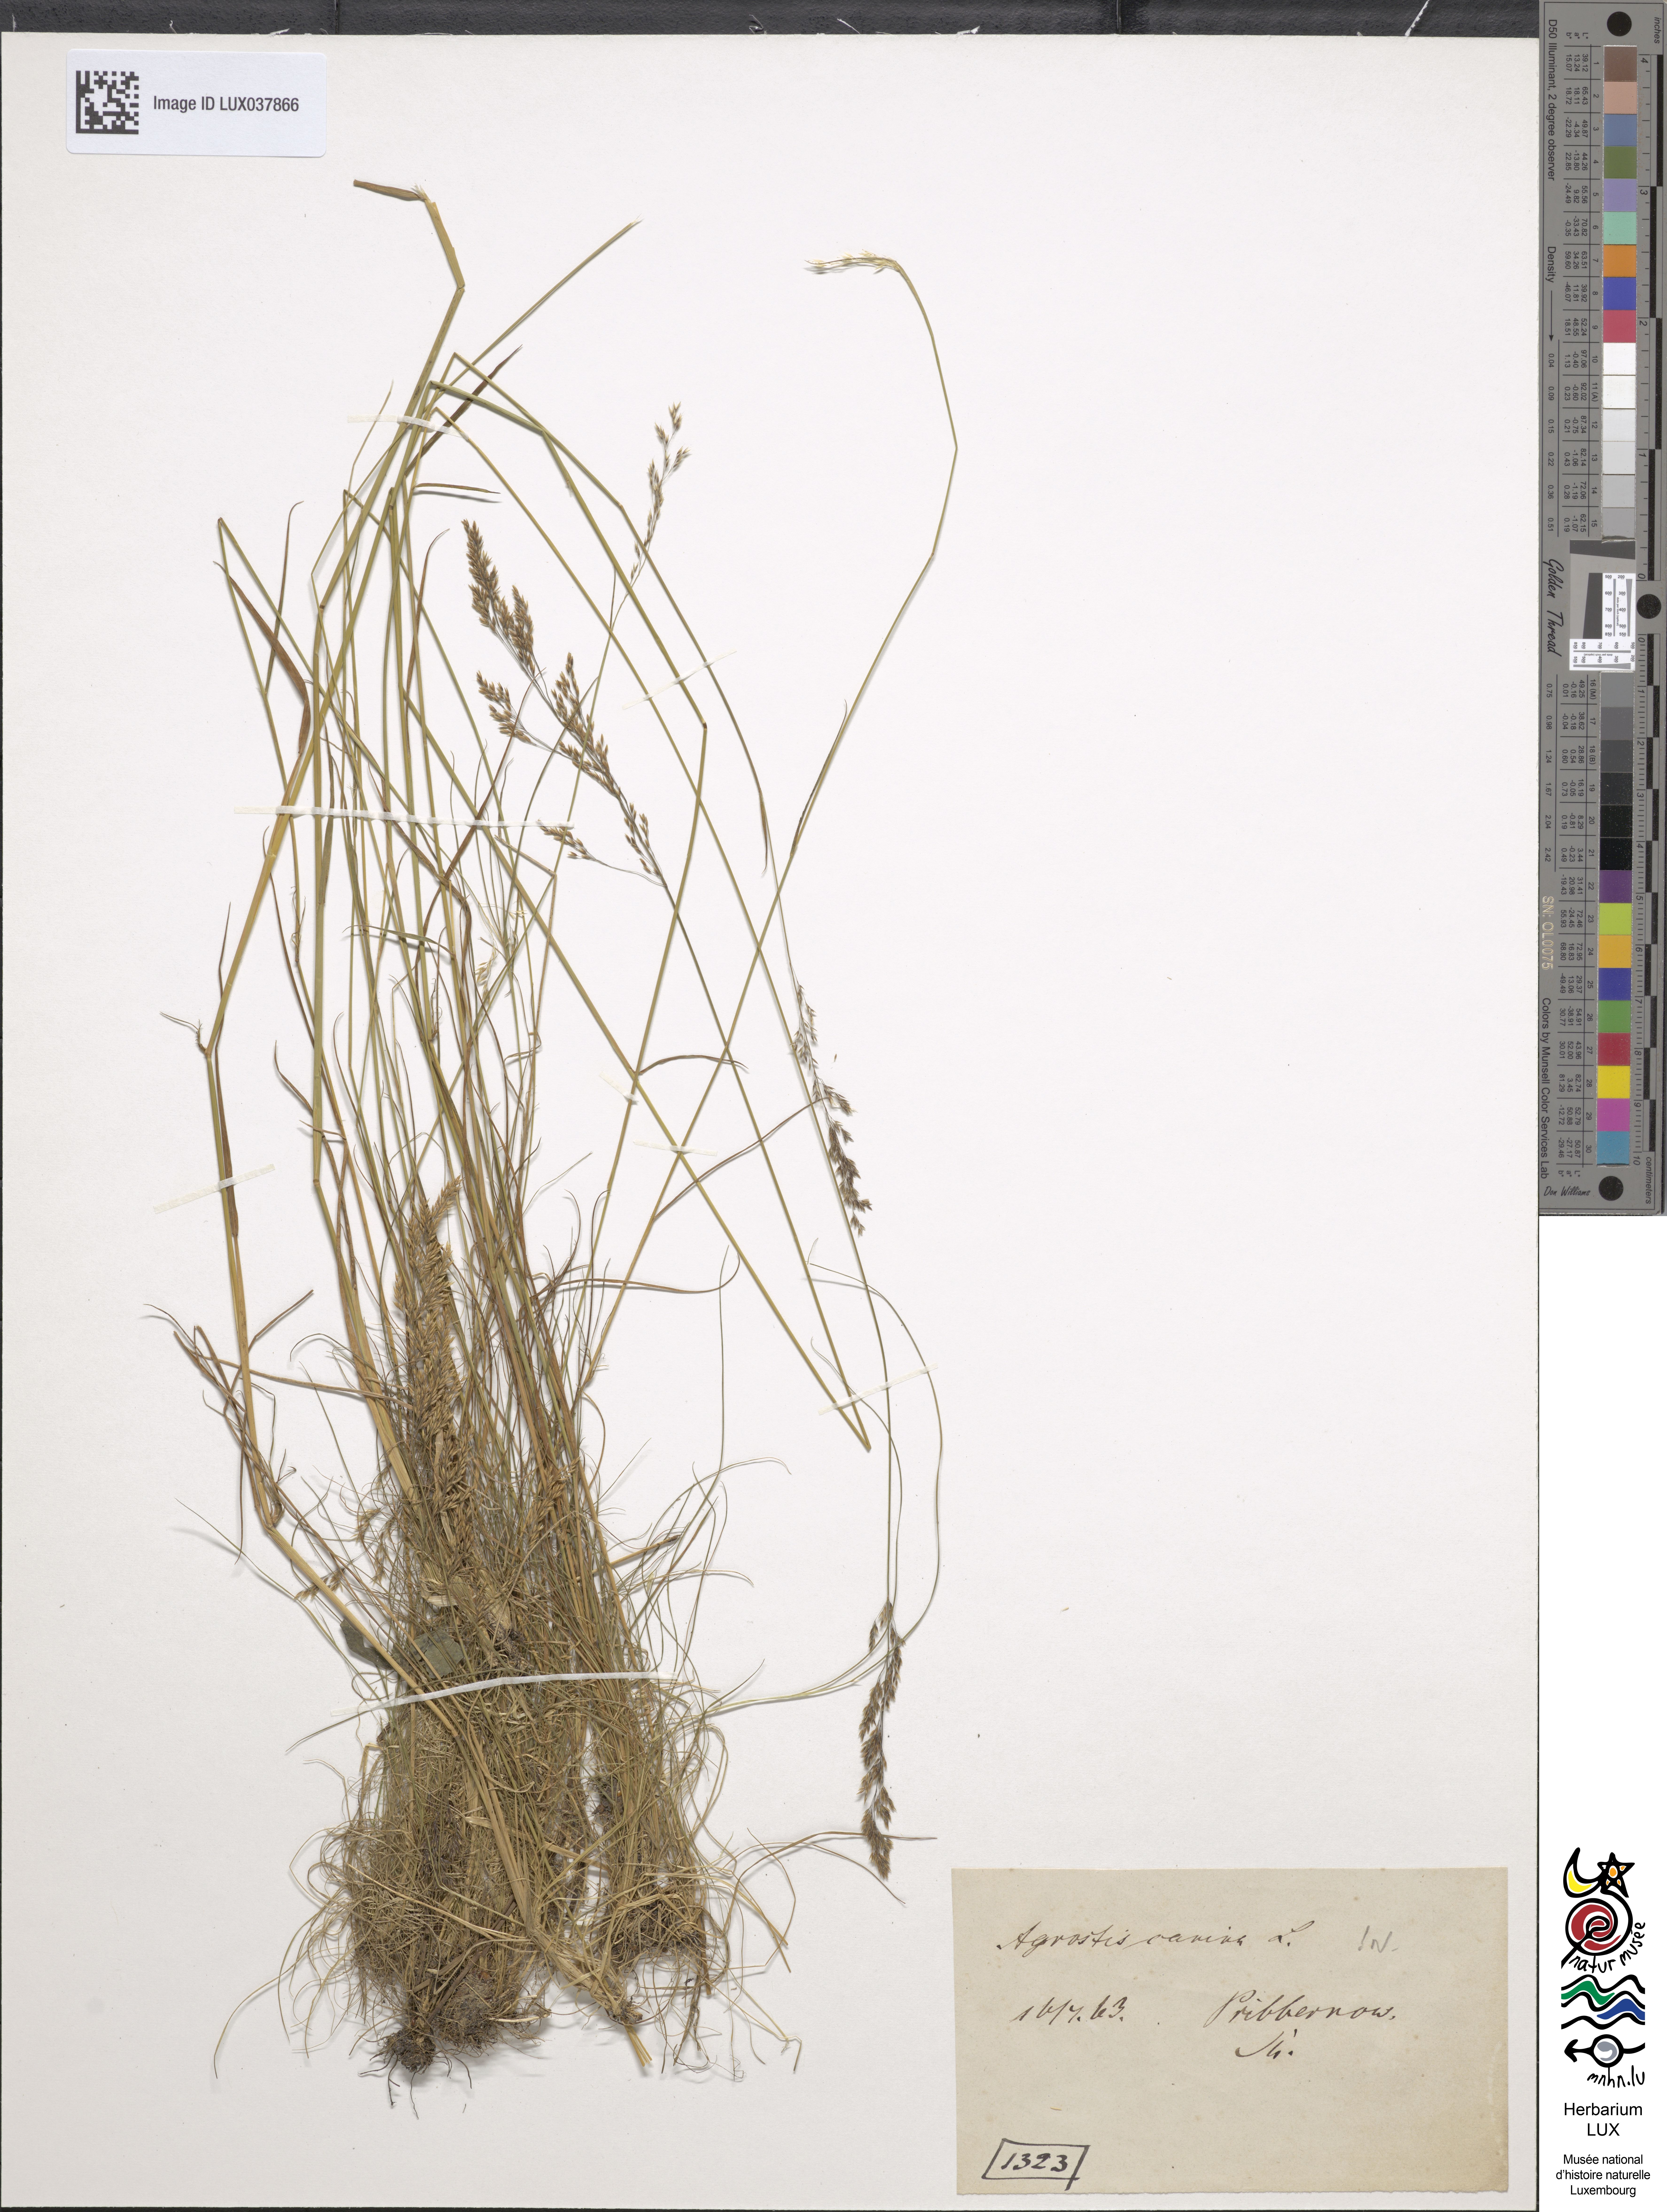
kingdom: Plantae
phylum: Tracheophyta
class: Liliopsida
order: Poales
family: Poaceae
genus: Agrostis
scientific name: Agrostis canina
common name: Velvet bent
